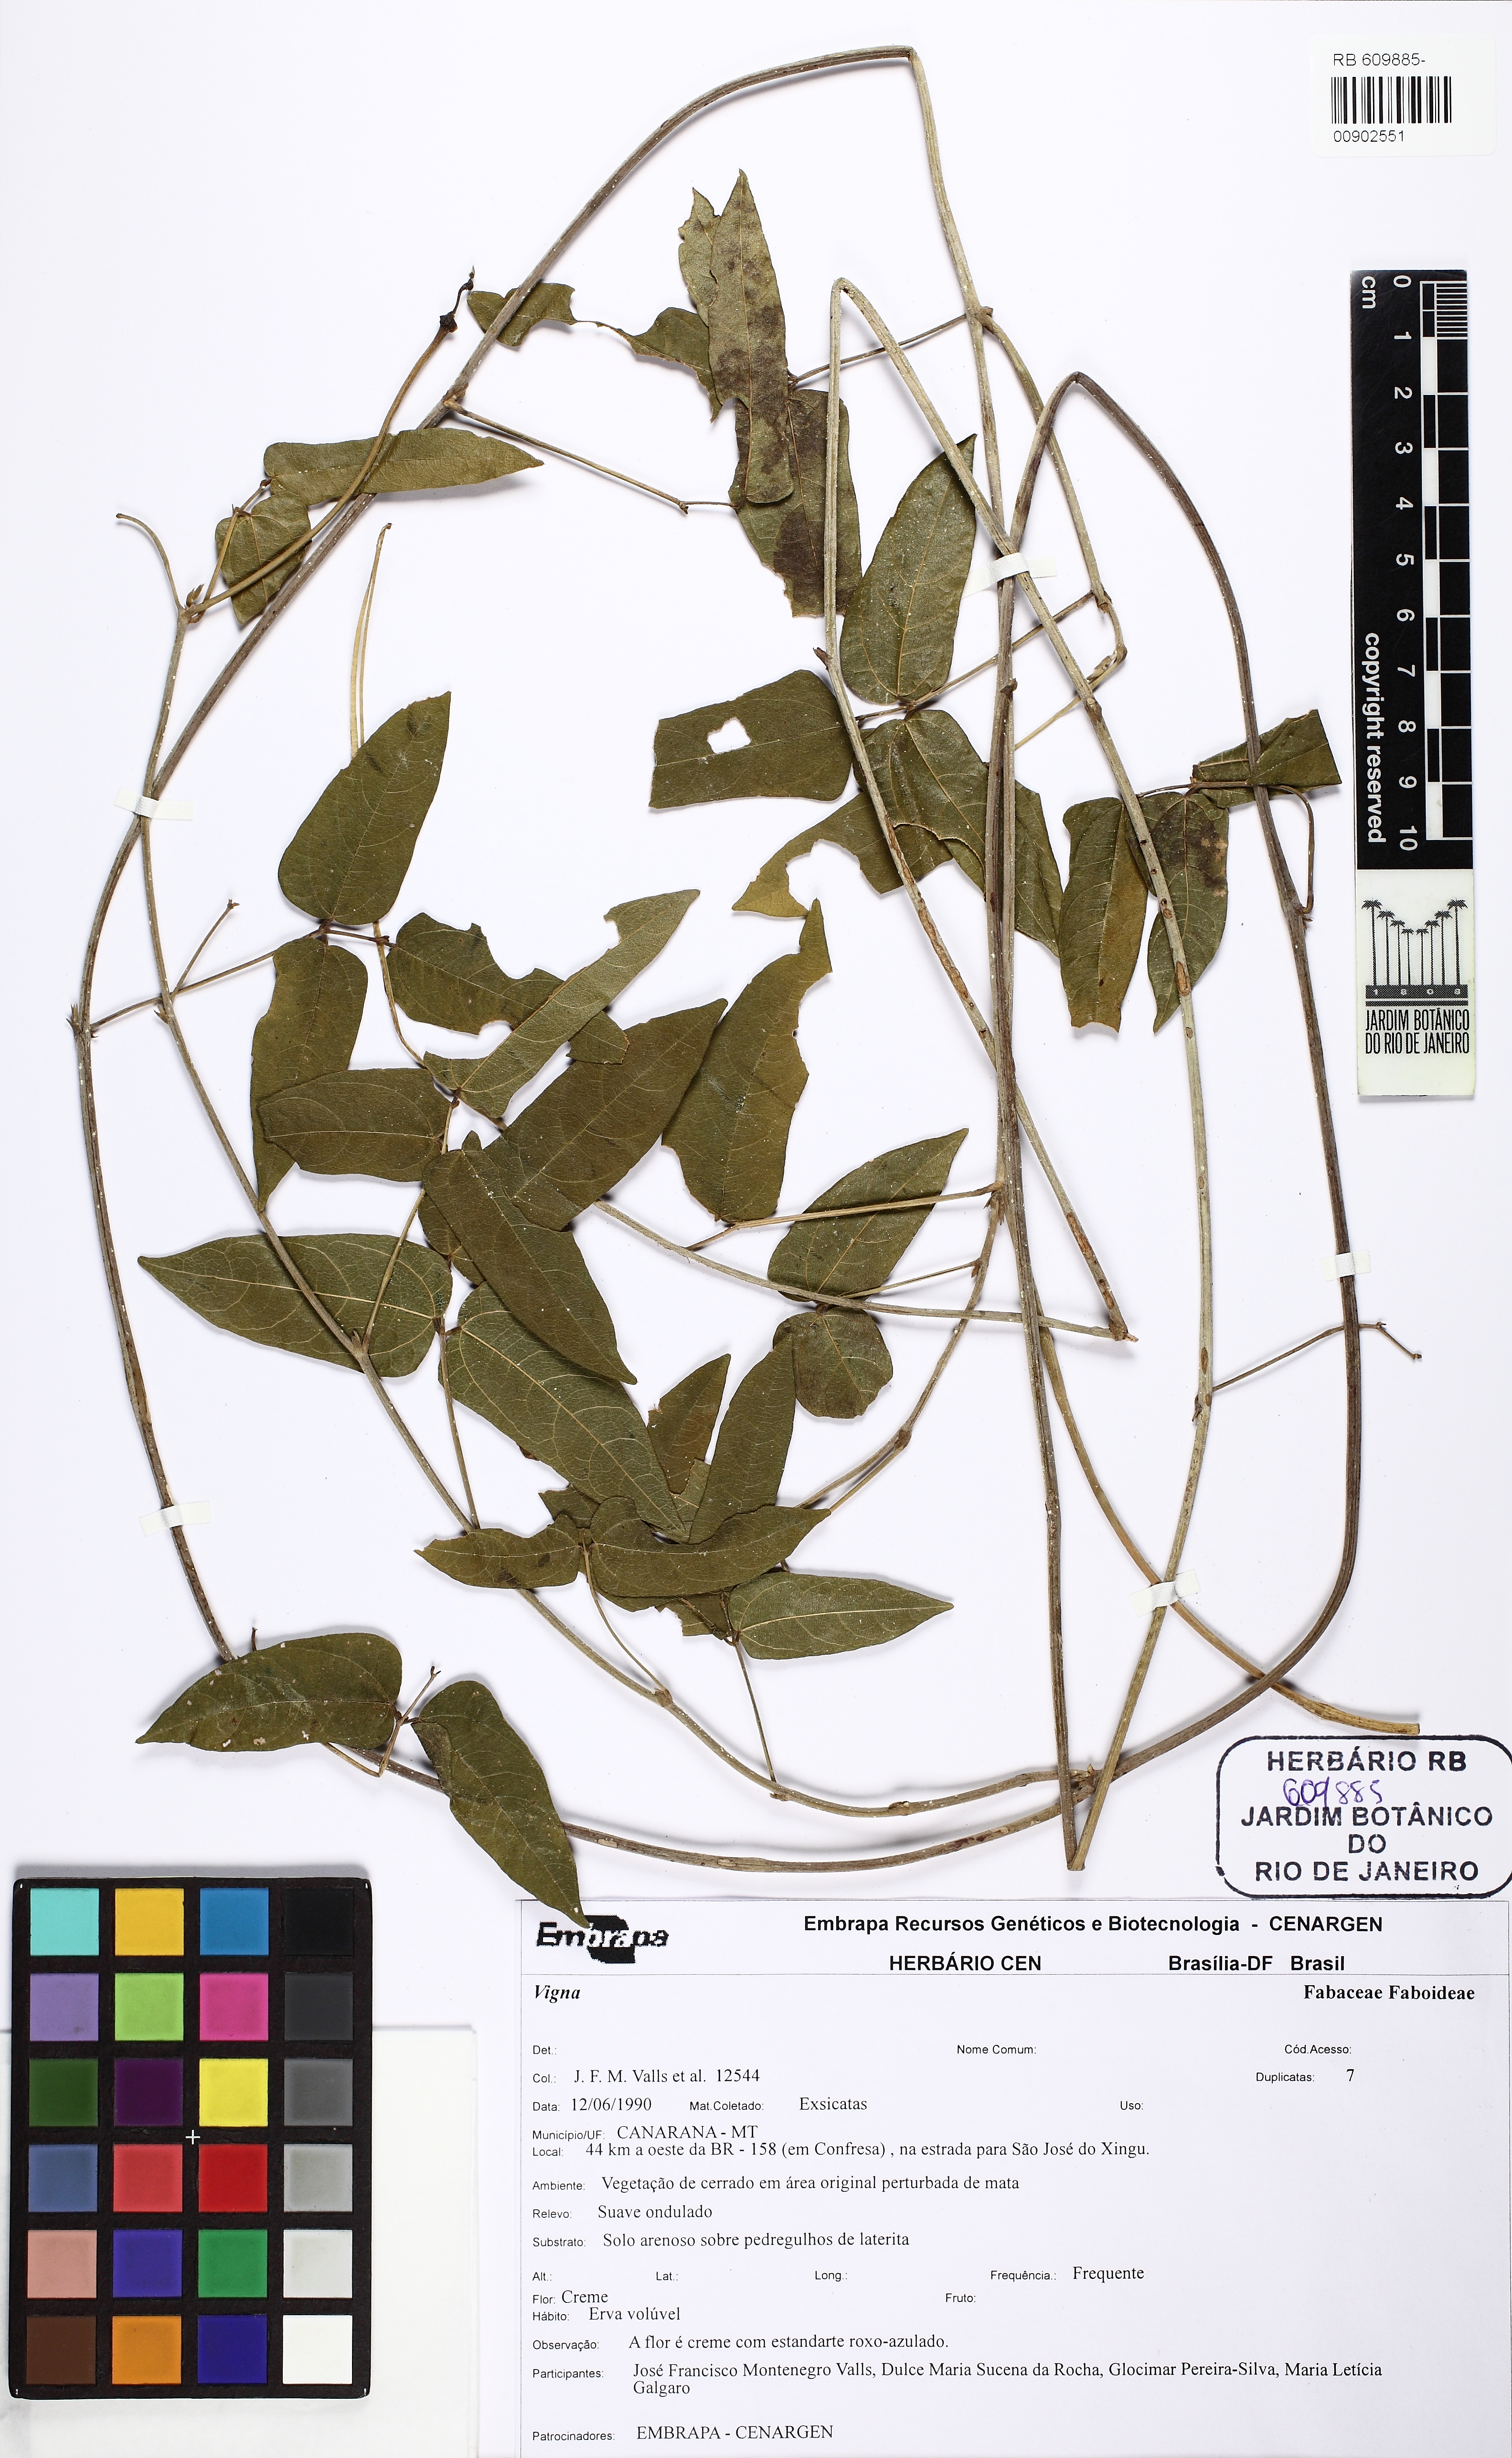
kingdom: Plantae
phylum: Tracheophyta
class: Magnoliopsida
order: Fabales
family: Fabaceae
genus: Helicotropis
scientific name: Helicotropis linearis
